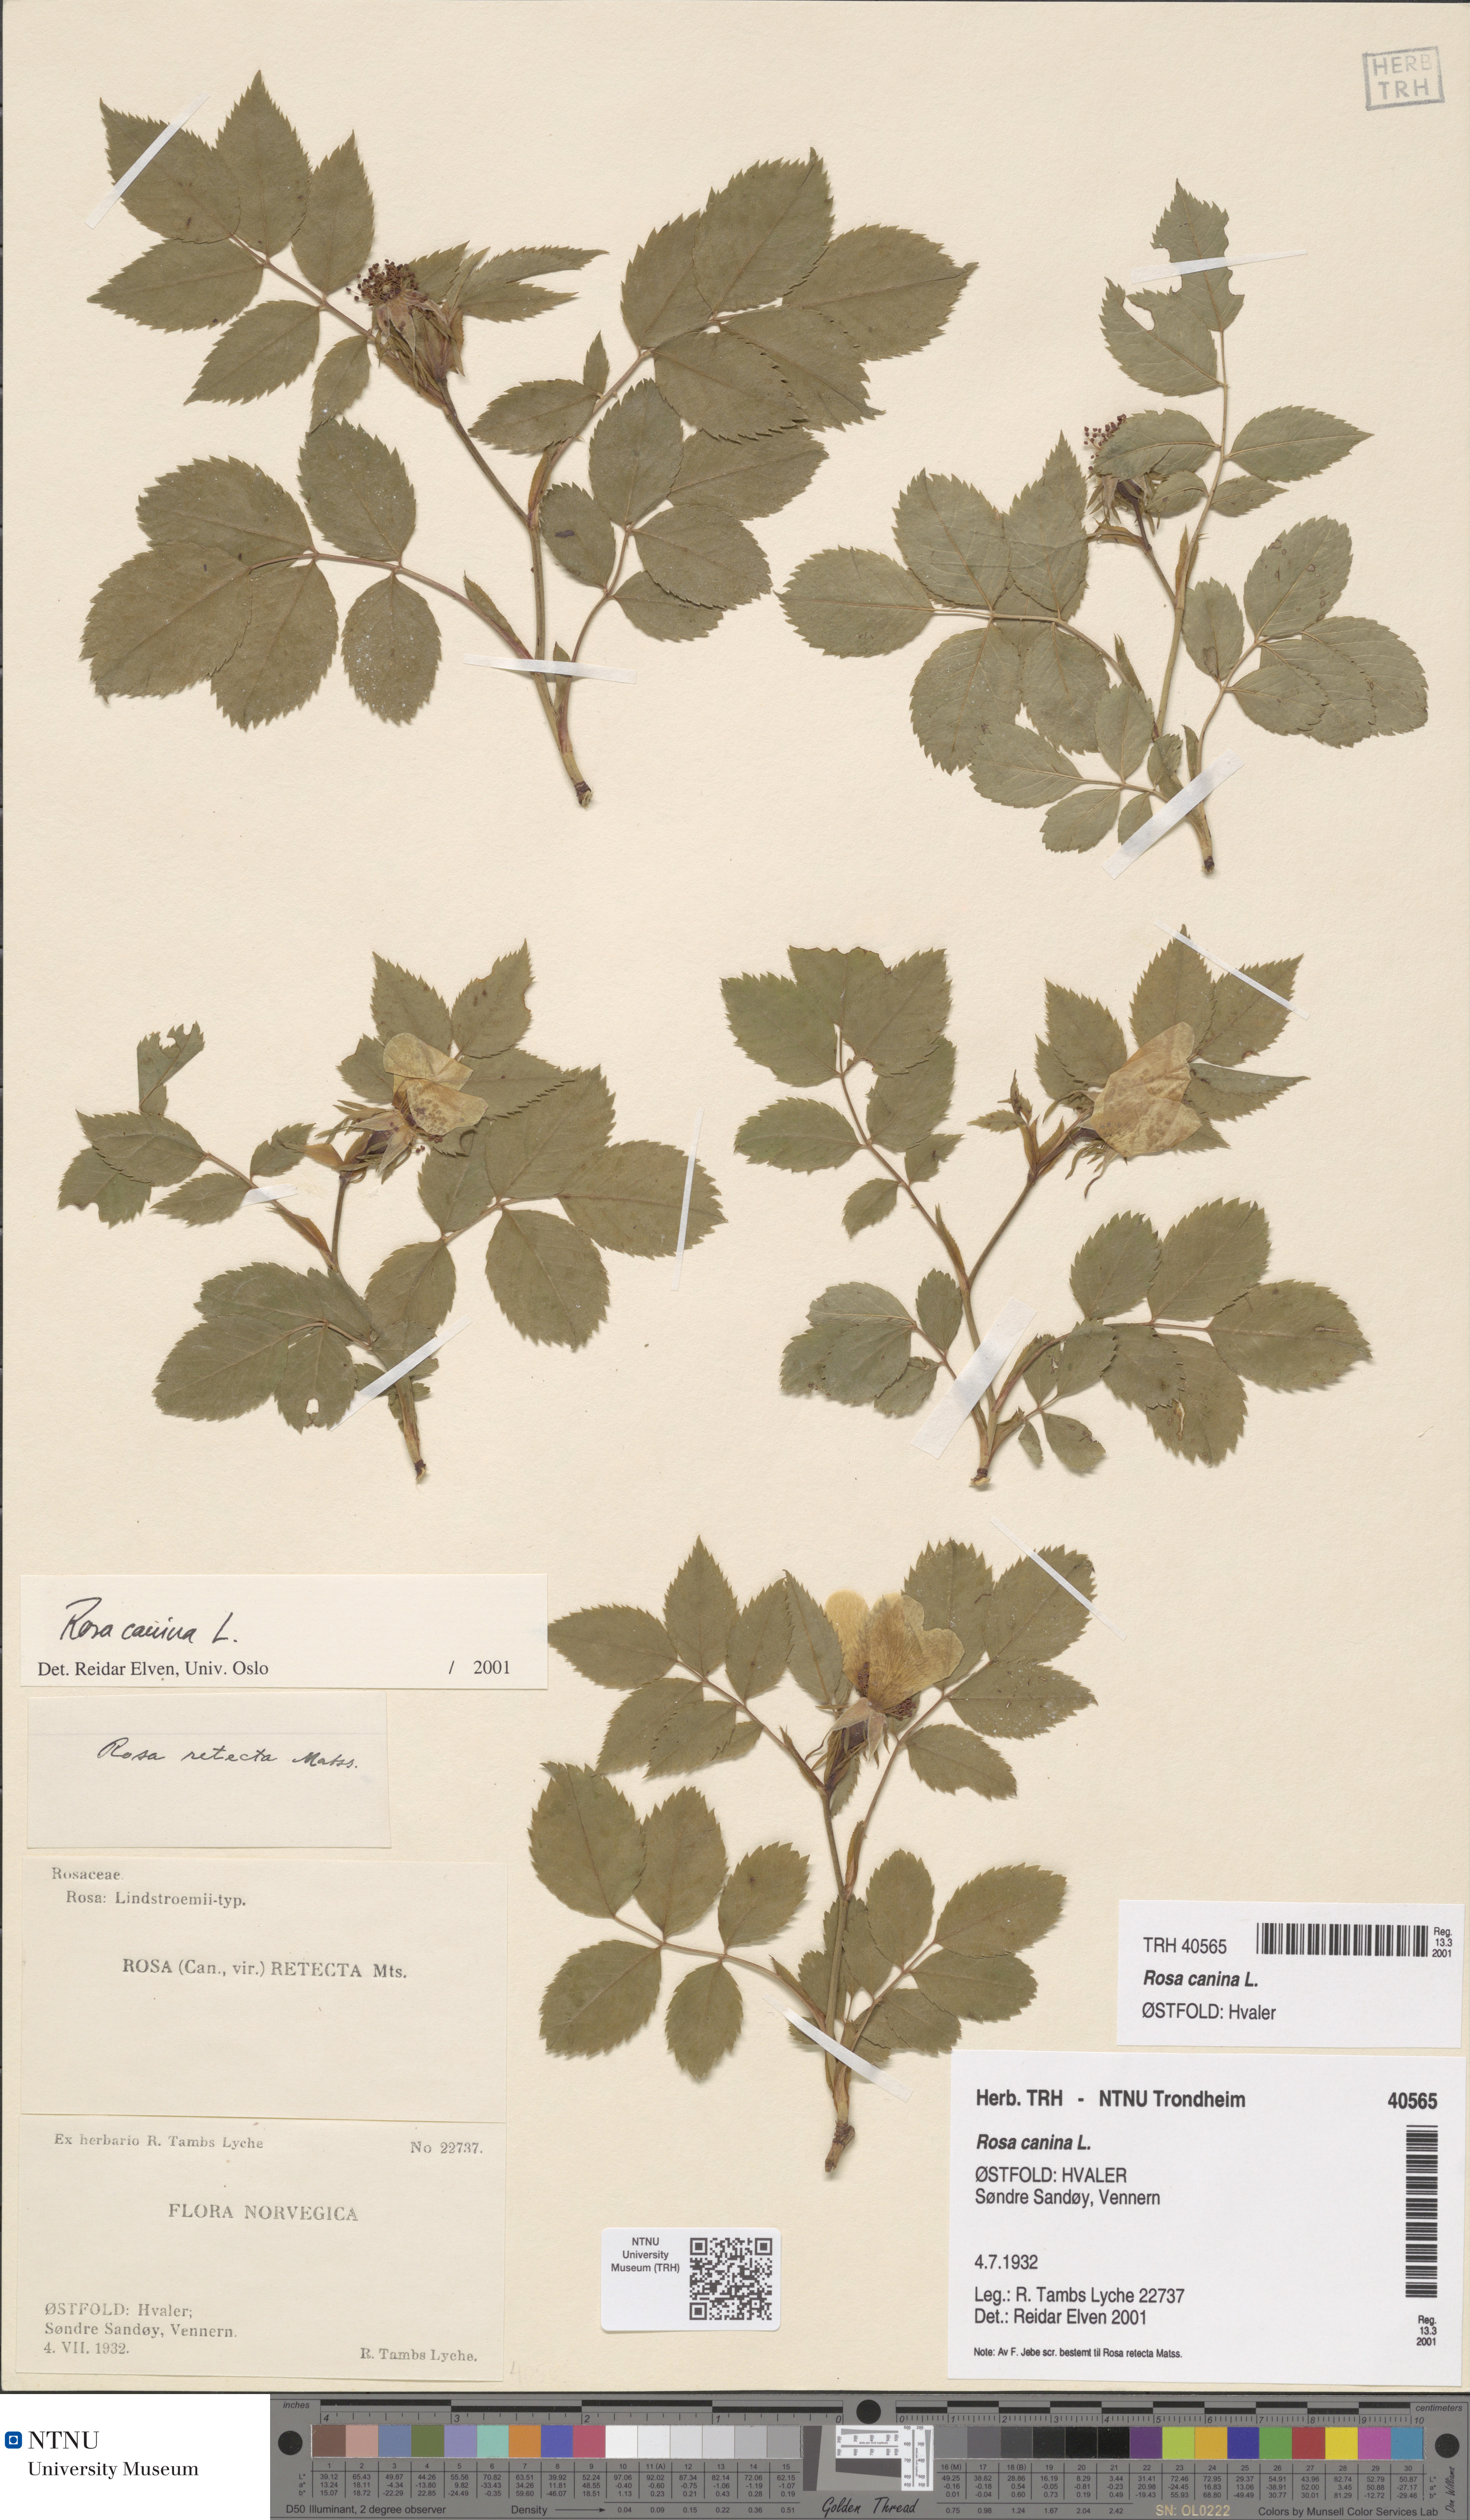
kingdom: Plantae
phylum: Tracheophyta
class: Magnoliopsida
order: Rosales
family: Rosaceae
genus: Rosa
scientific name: Rosa canina
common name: Dog rose
